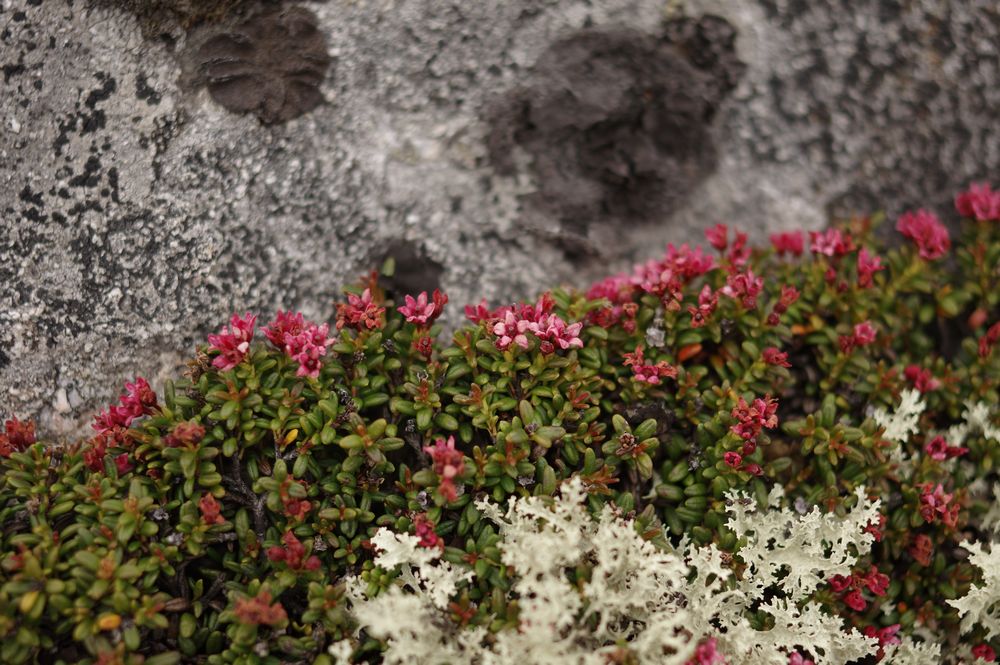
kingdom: Plantae
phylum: Tracheophyta
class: Magnoliopsida
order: Ericales
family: Ericaceae
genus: Kalmia
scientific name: Kalmia procumbens
